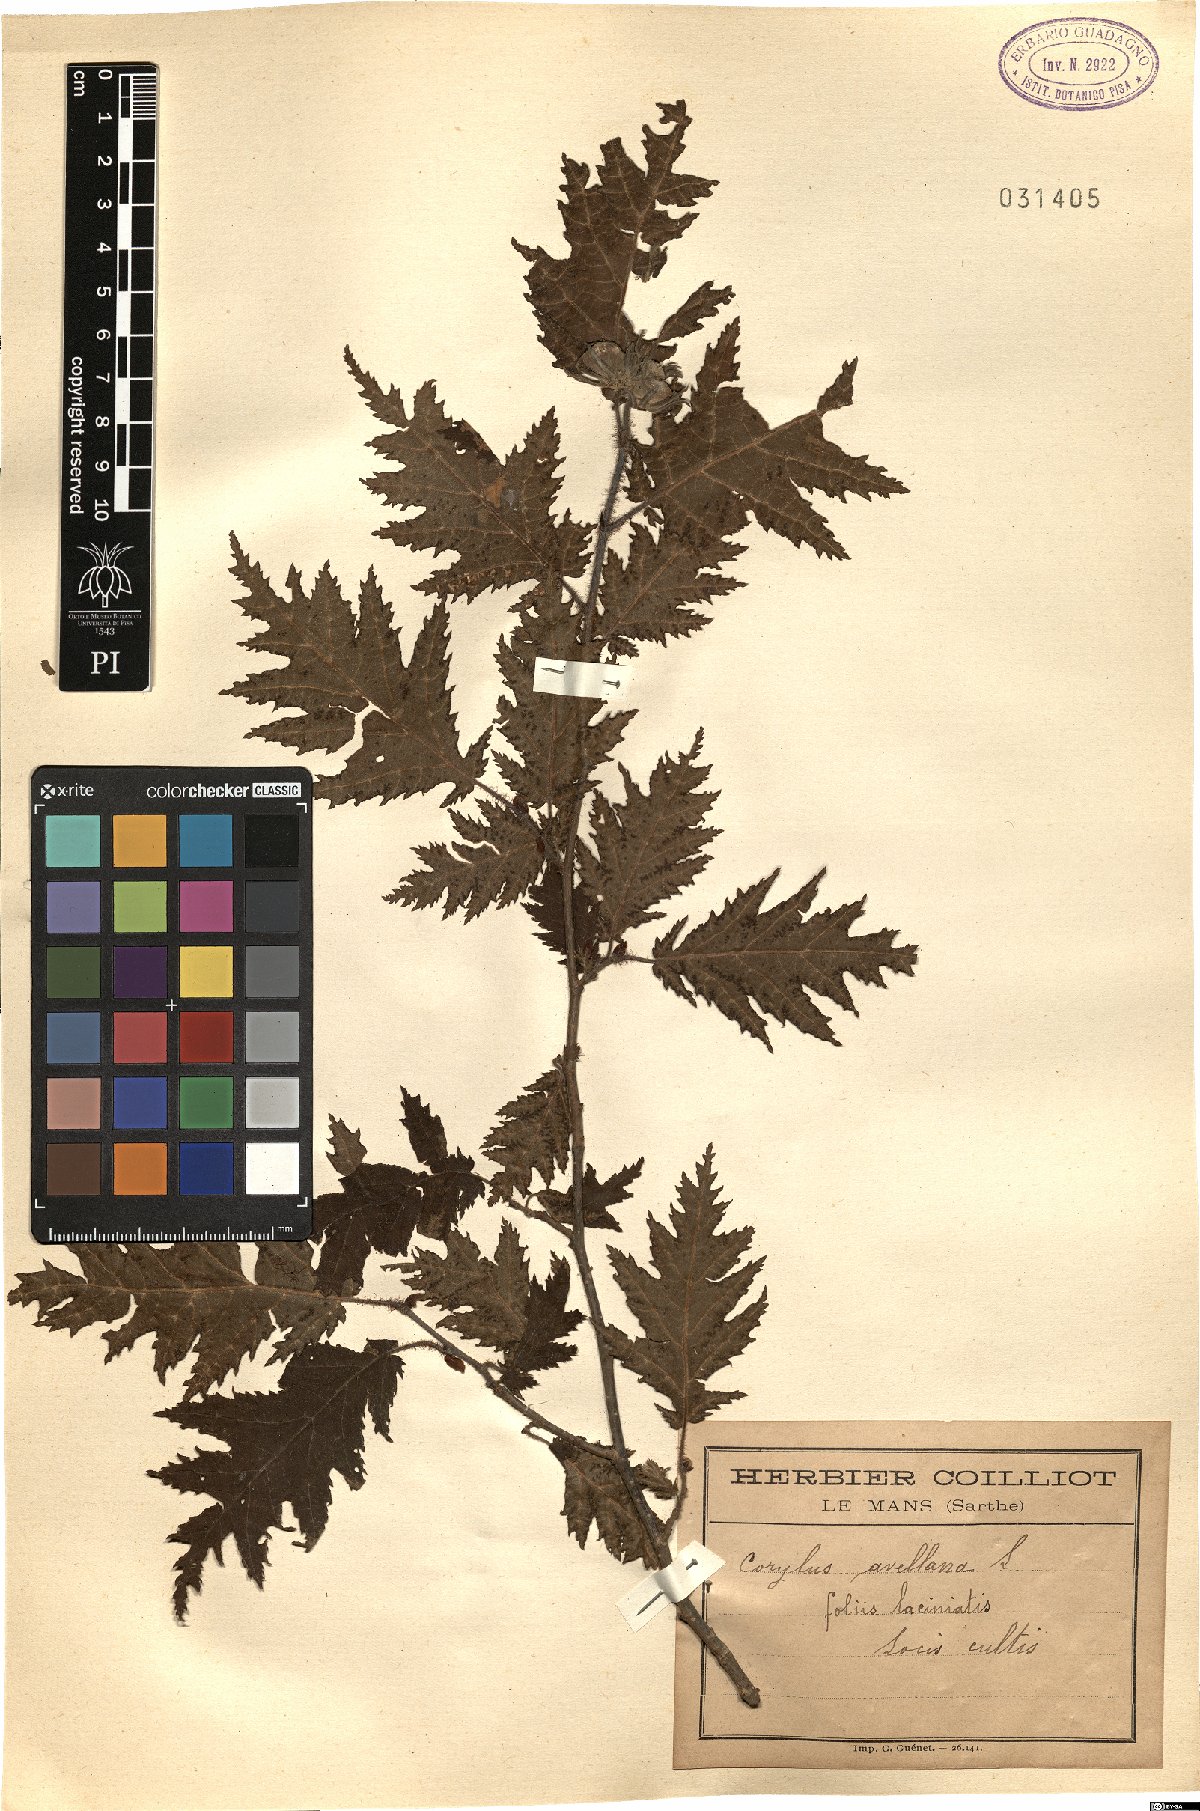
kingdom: Plantae
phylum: Tracheophyta
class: Magnoliopsida
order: Fagales
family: Betulaceae
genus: Corylus
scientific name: Corylus avellana
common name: European hazel
